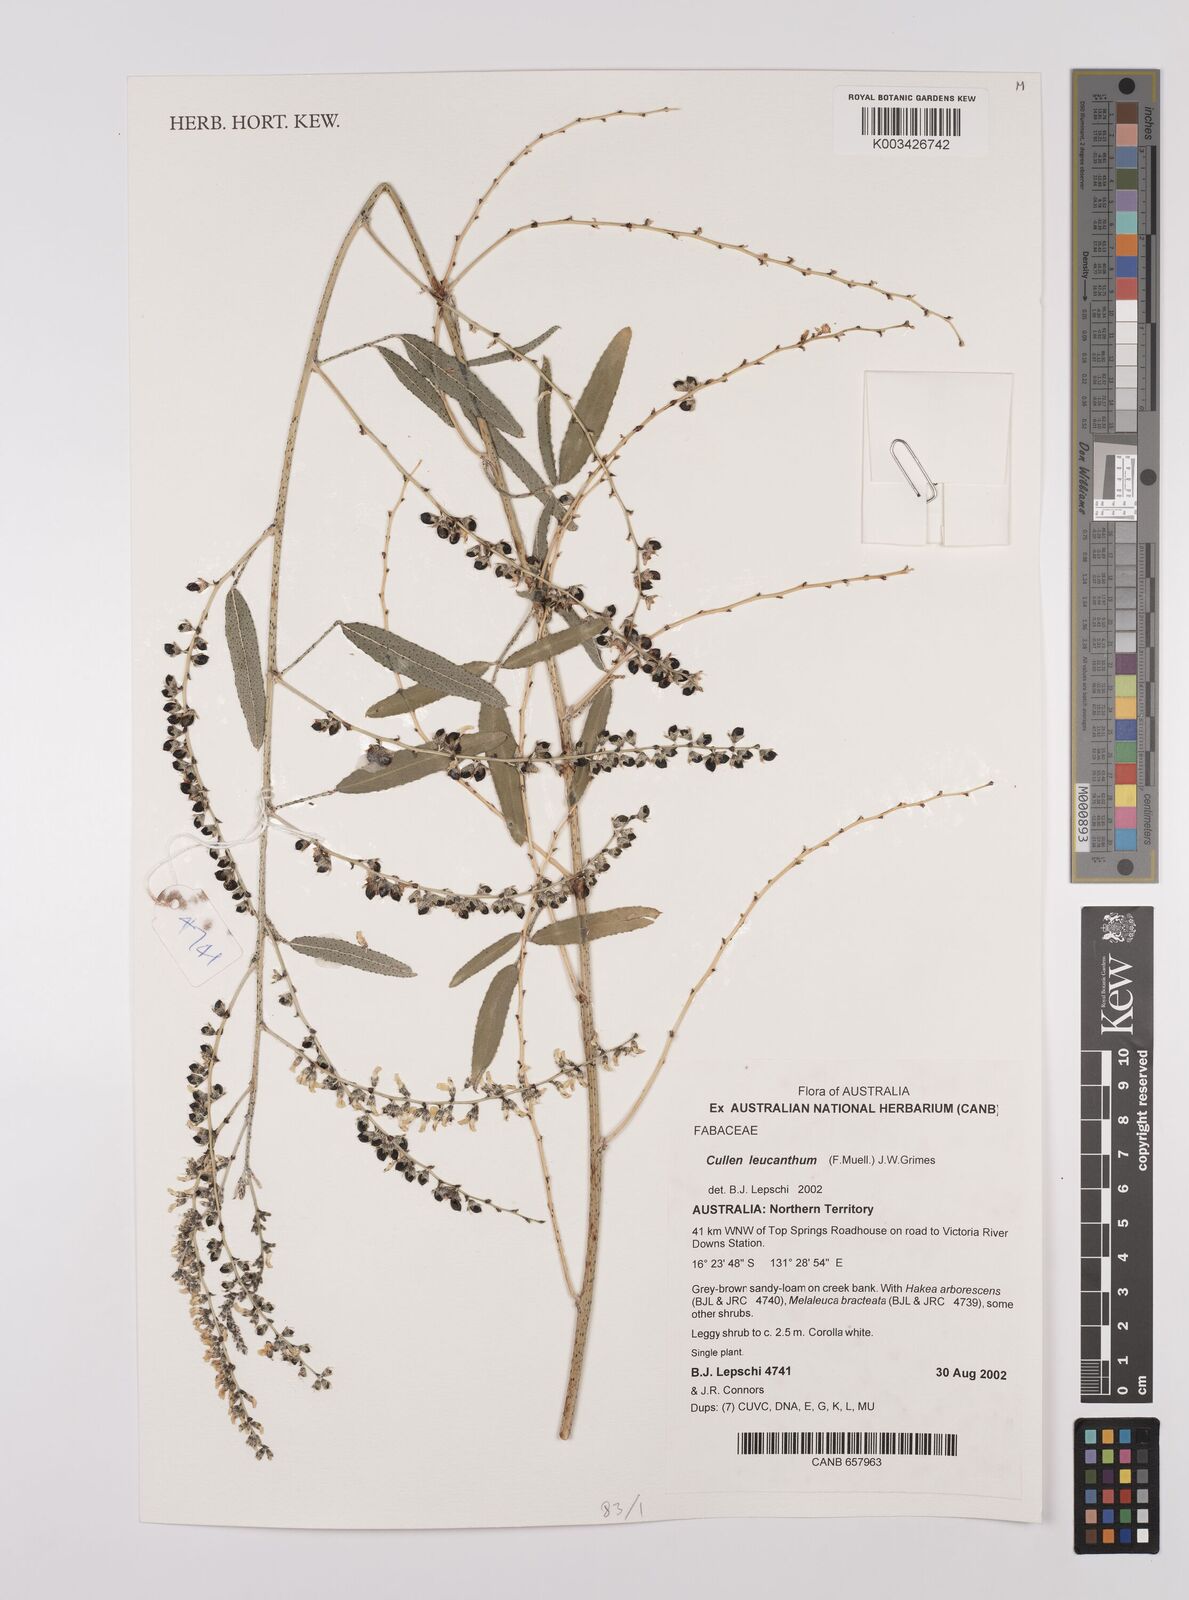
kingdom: Plantae
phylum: Tracheophyta
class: Magnoliopsida
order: Fabales
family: Fabaceae
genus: Cullen
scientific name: Cullen leucanthum
